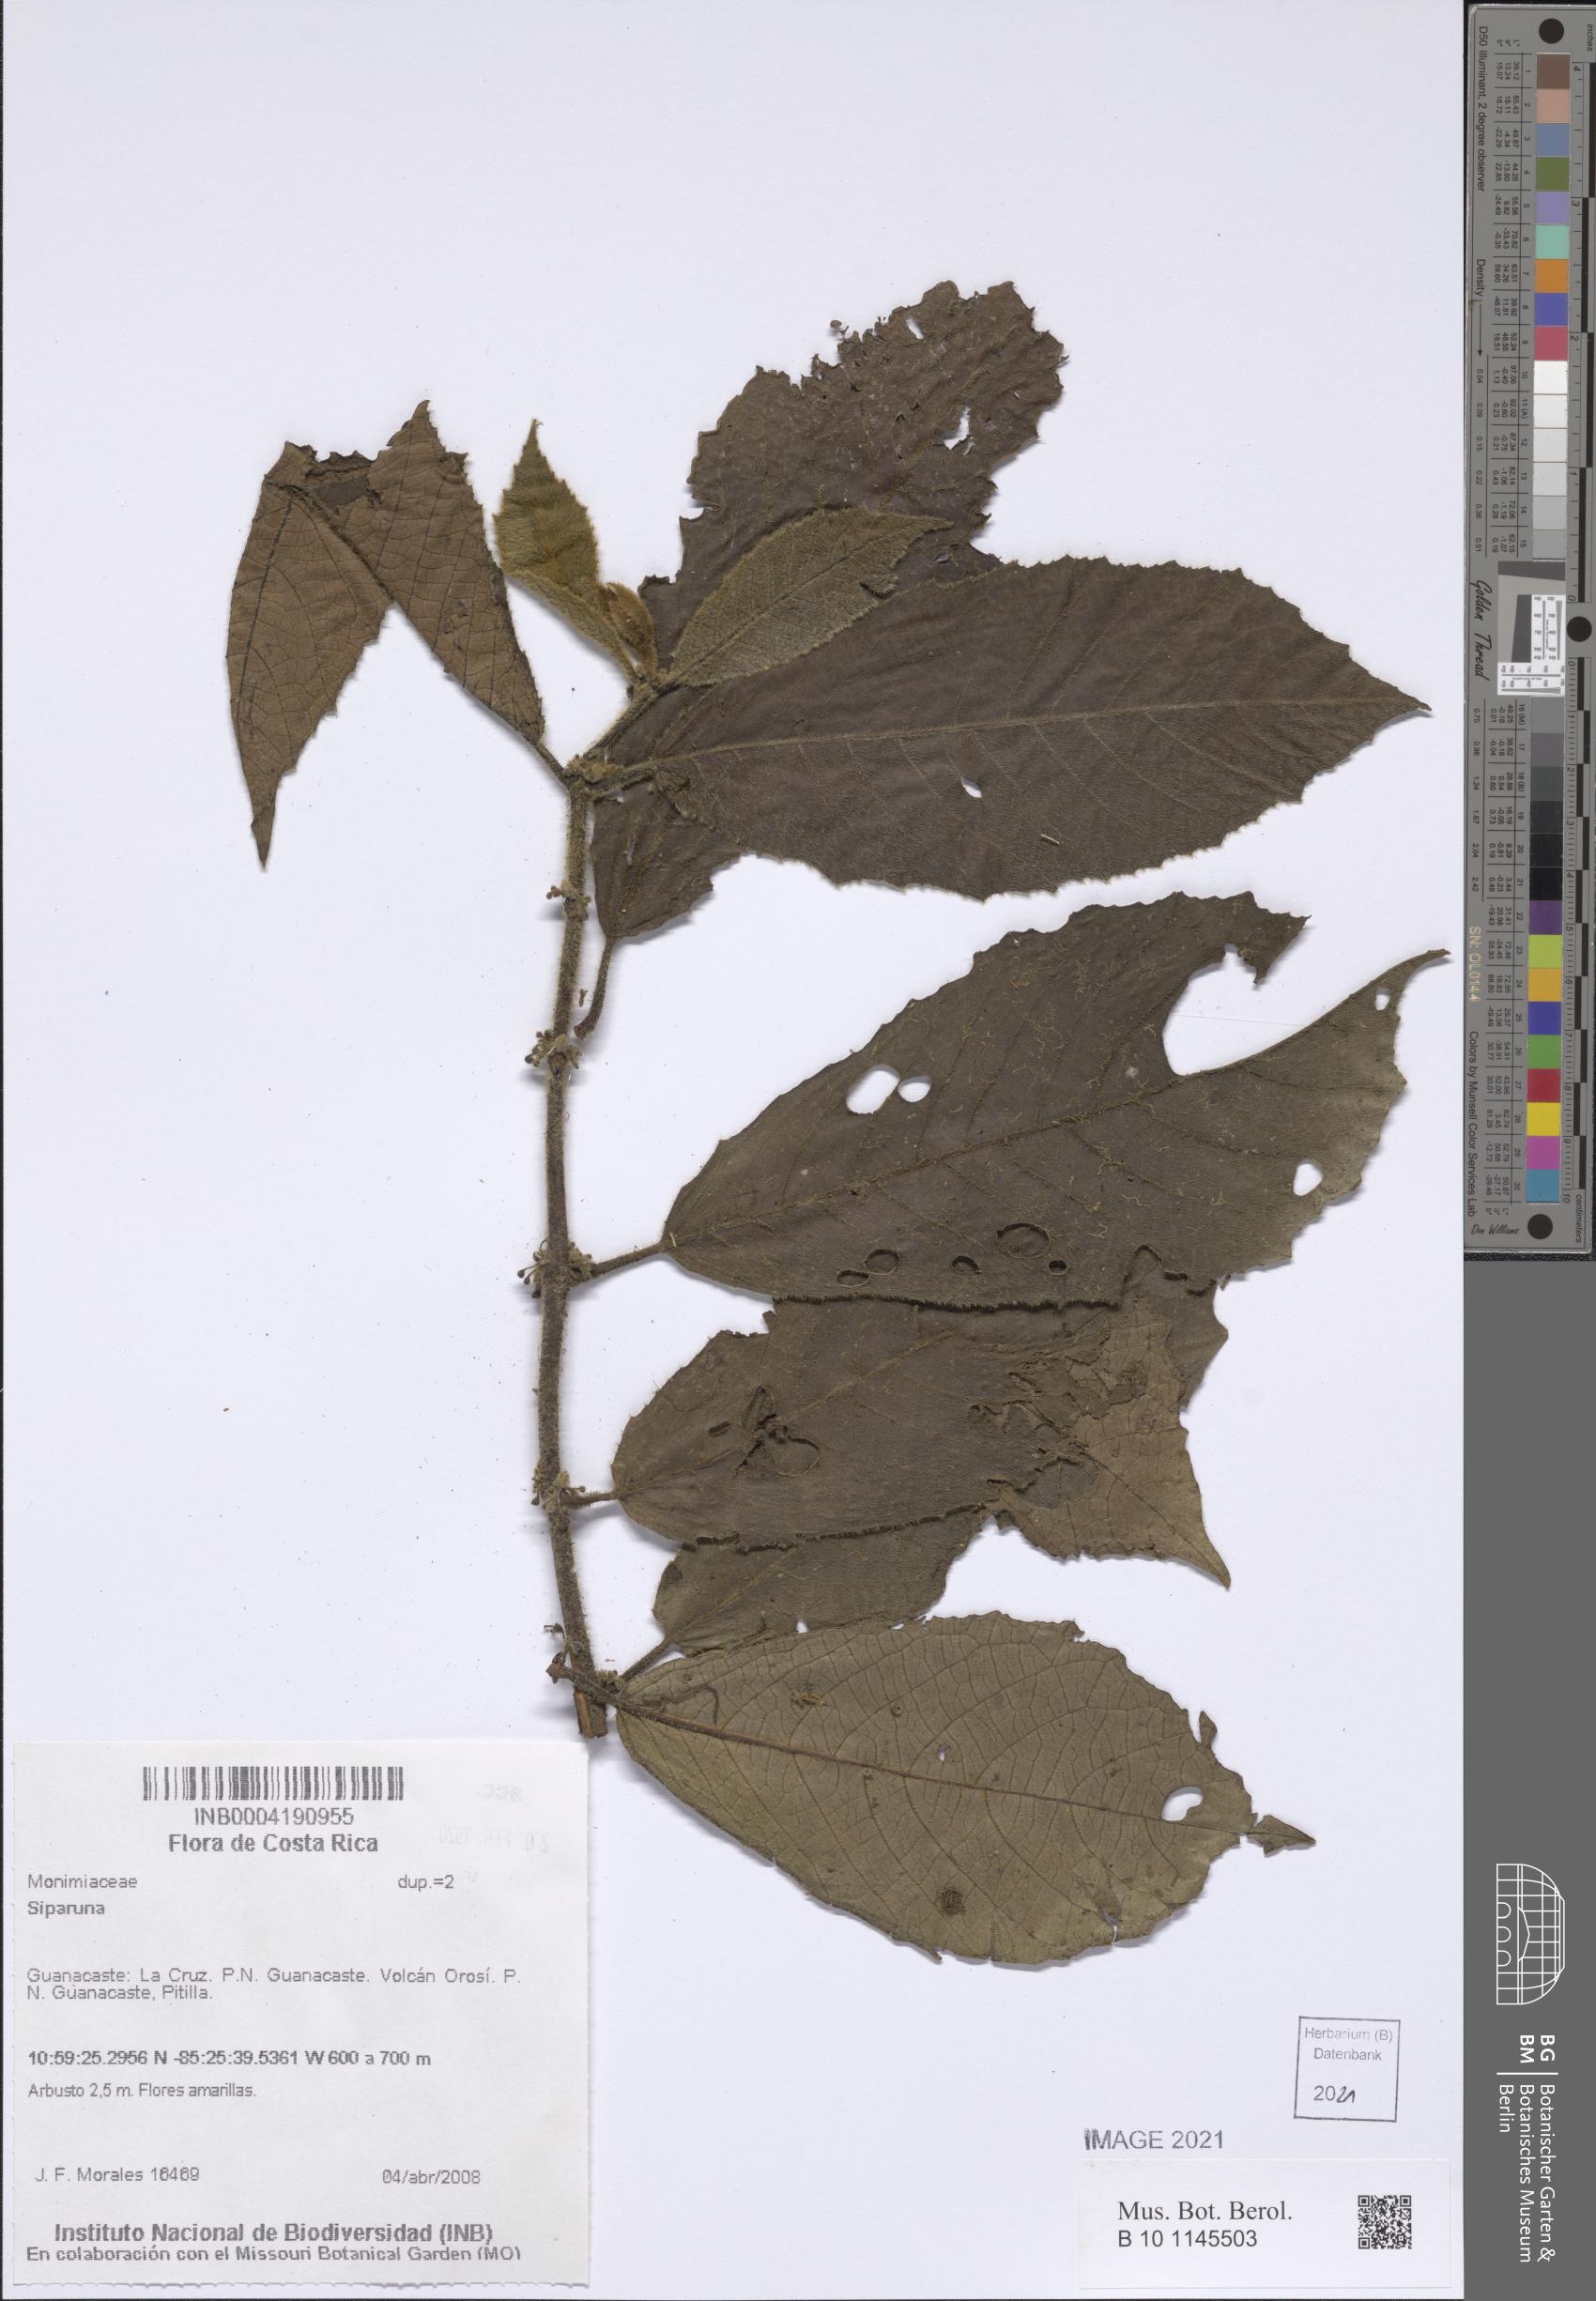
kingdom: Plantae
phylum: Tracheophyta
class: Magnoliopsida
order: Laurales
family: Siparunaceae
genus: Siparuna
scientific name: Siparuna
